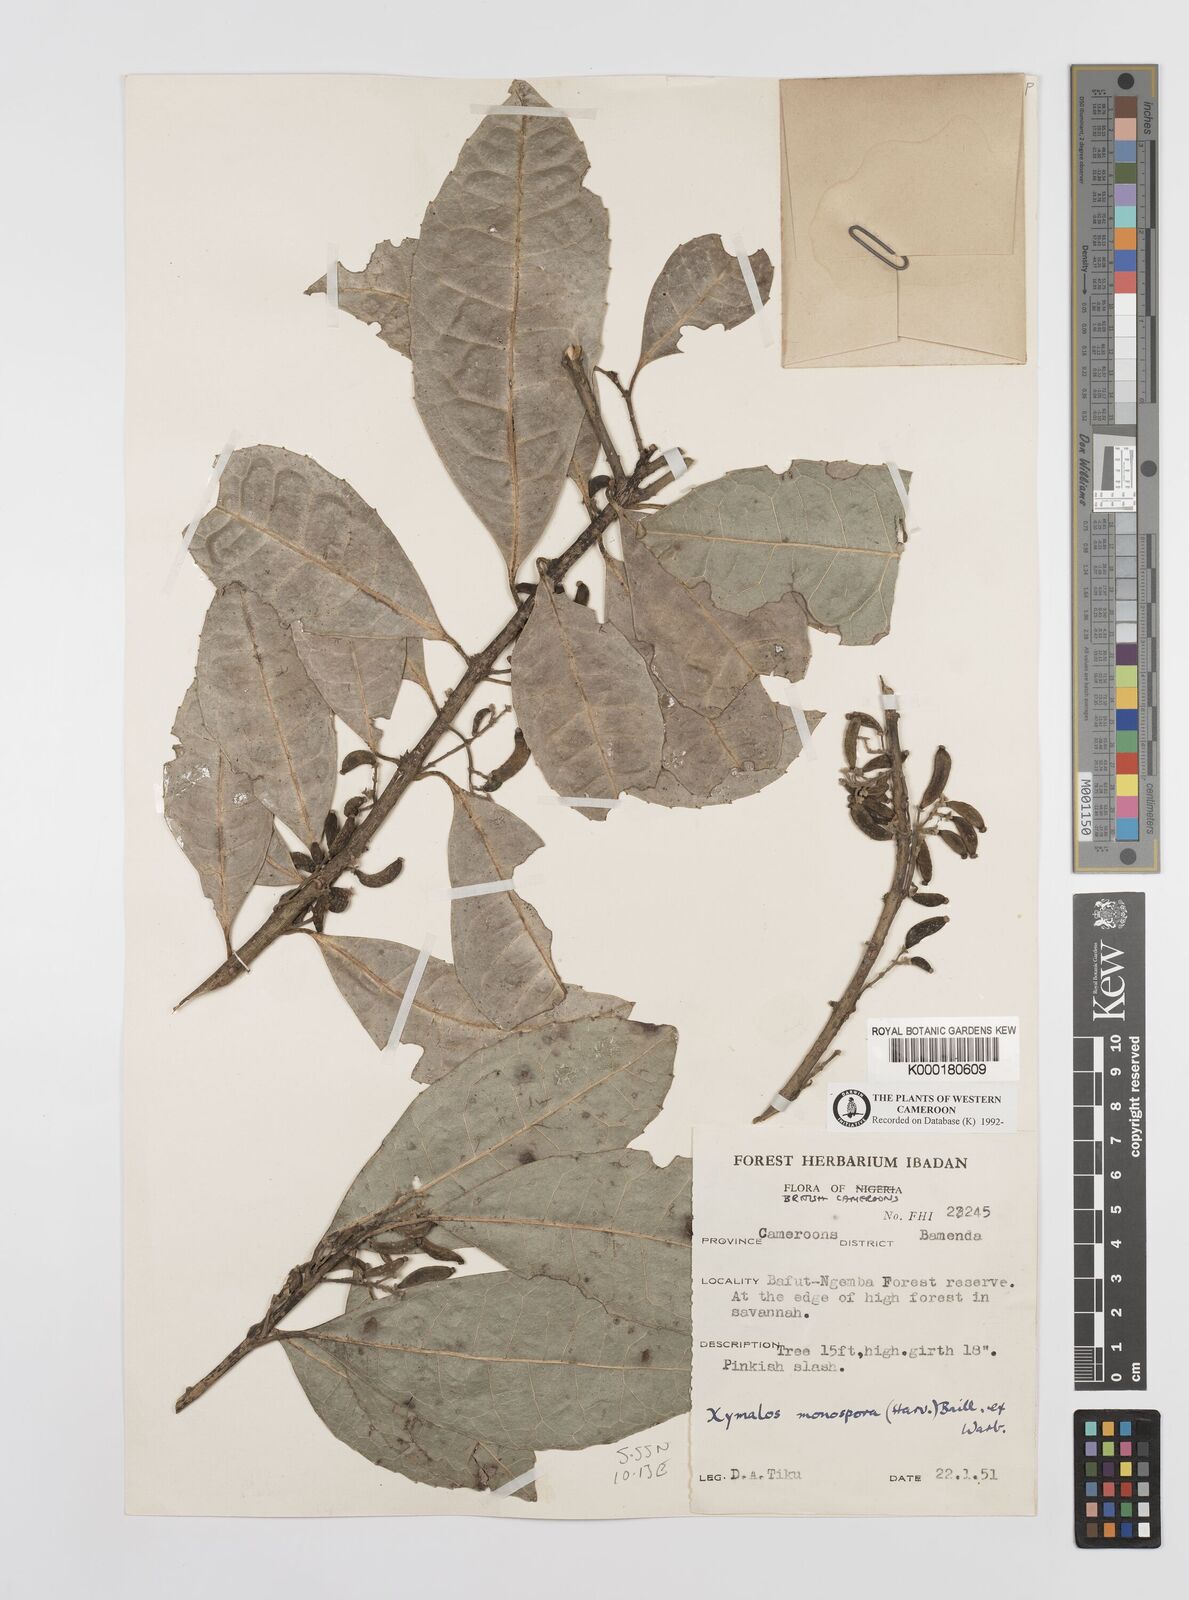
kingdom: Plantae
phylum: Tracheophyta
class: Magnoliopsida
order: Laurales
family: Monimiaceae
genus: Xymalos
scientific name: Xymalos
